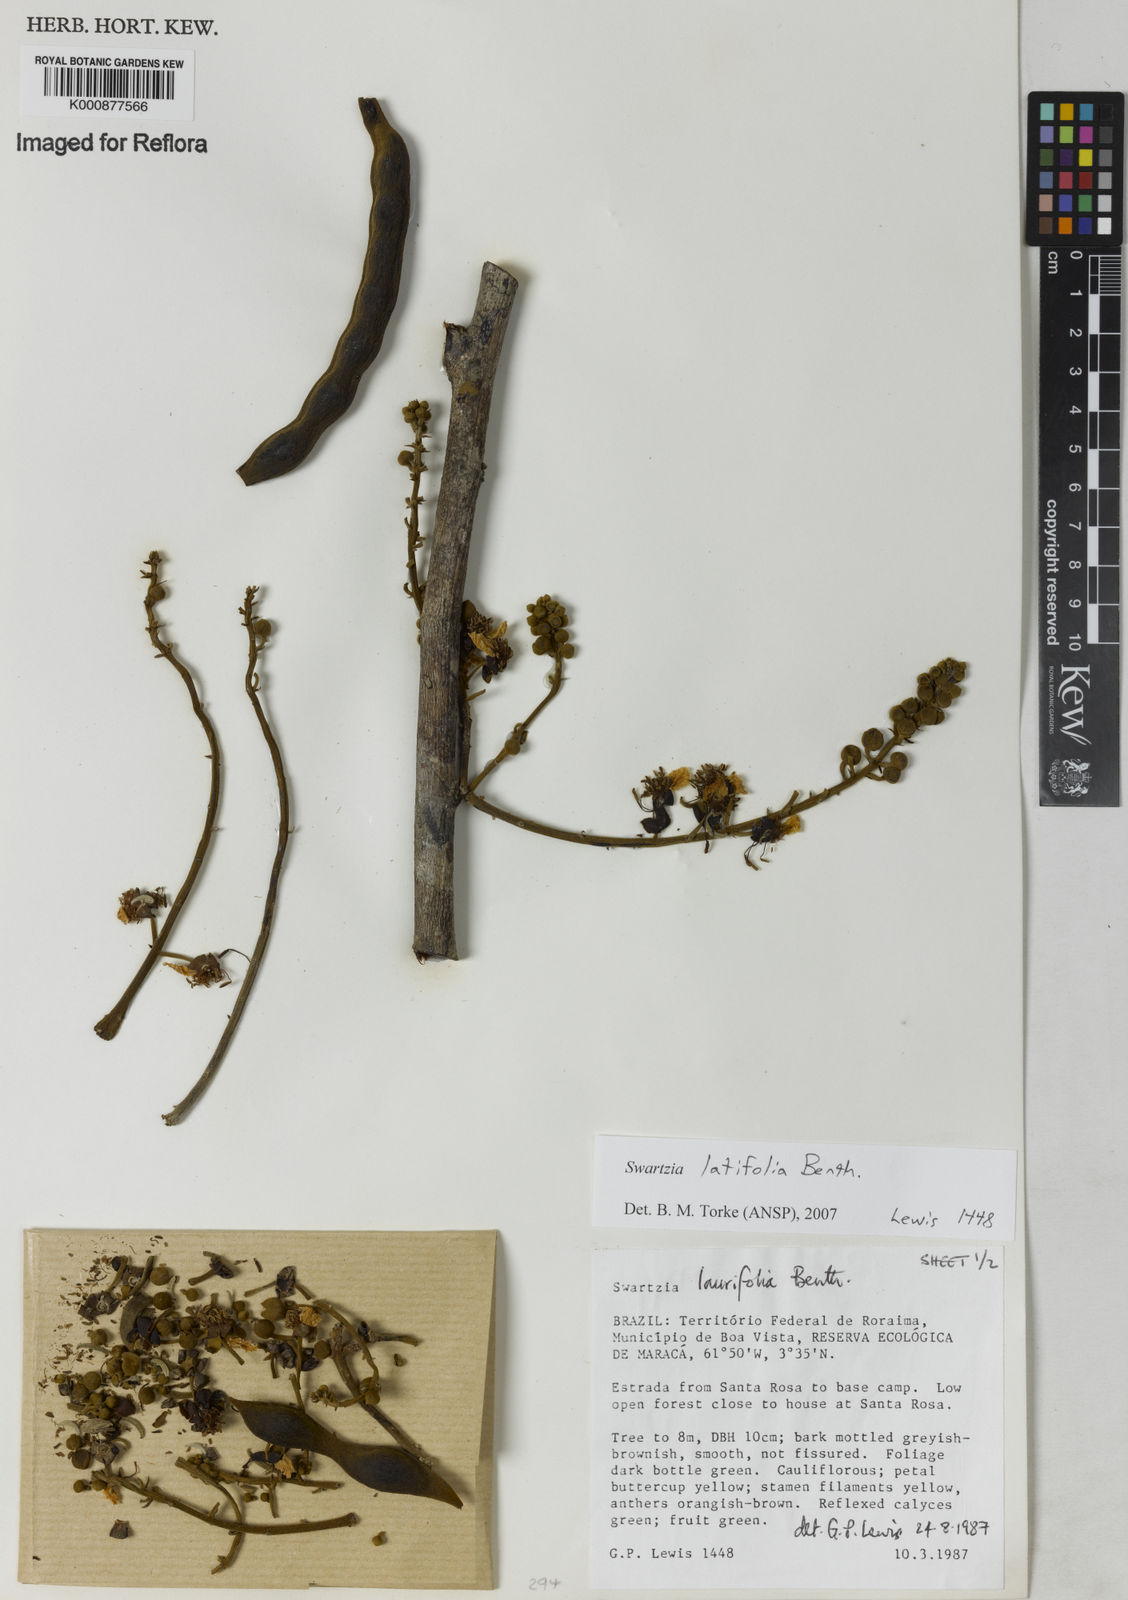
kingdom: Plantae
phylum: Tracheophyta
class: Magnoliopsida
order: Fabales
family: Fabaceae
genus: Swartzia
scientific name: Swartzia latifolia
